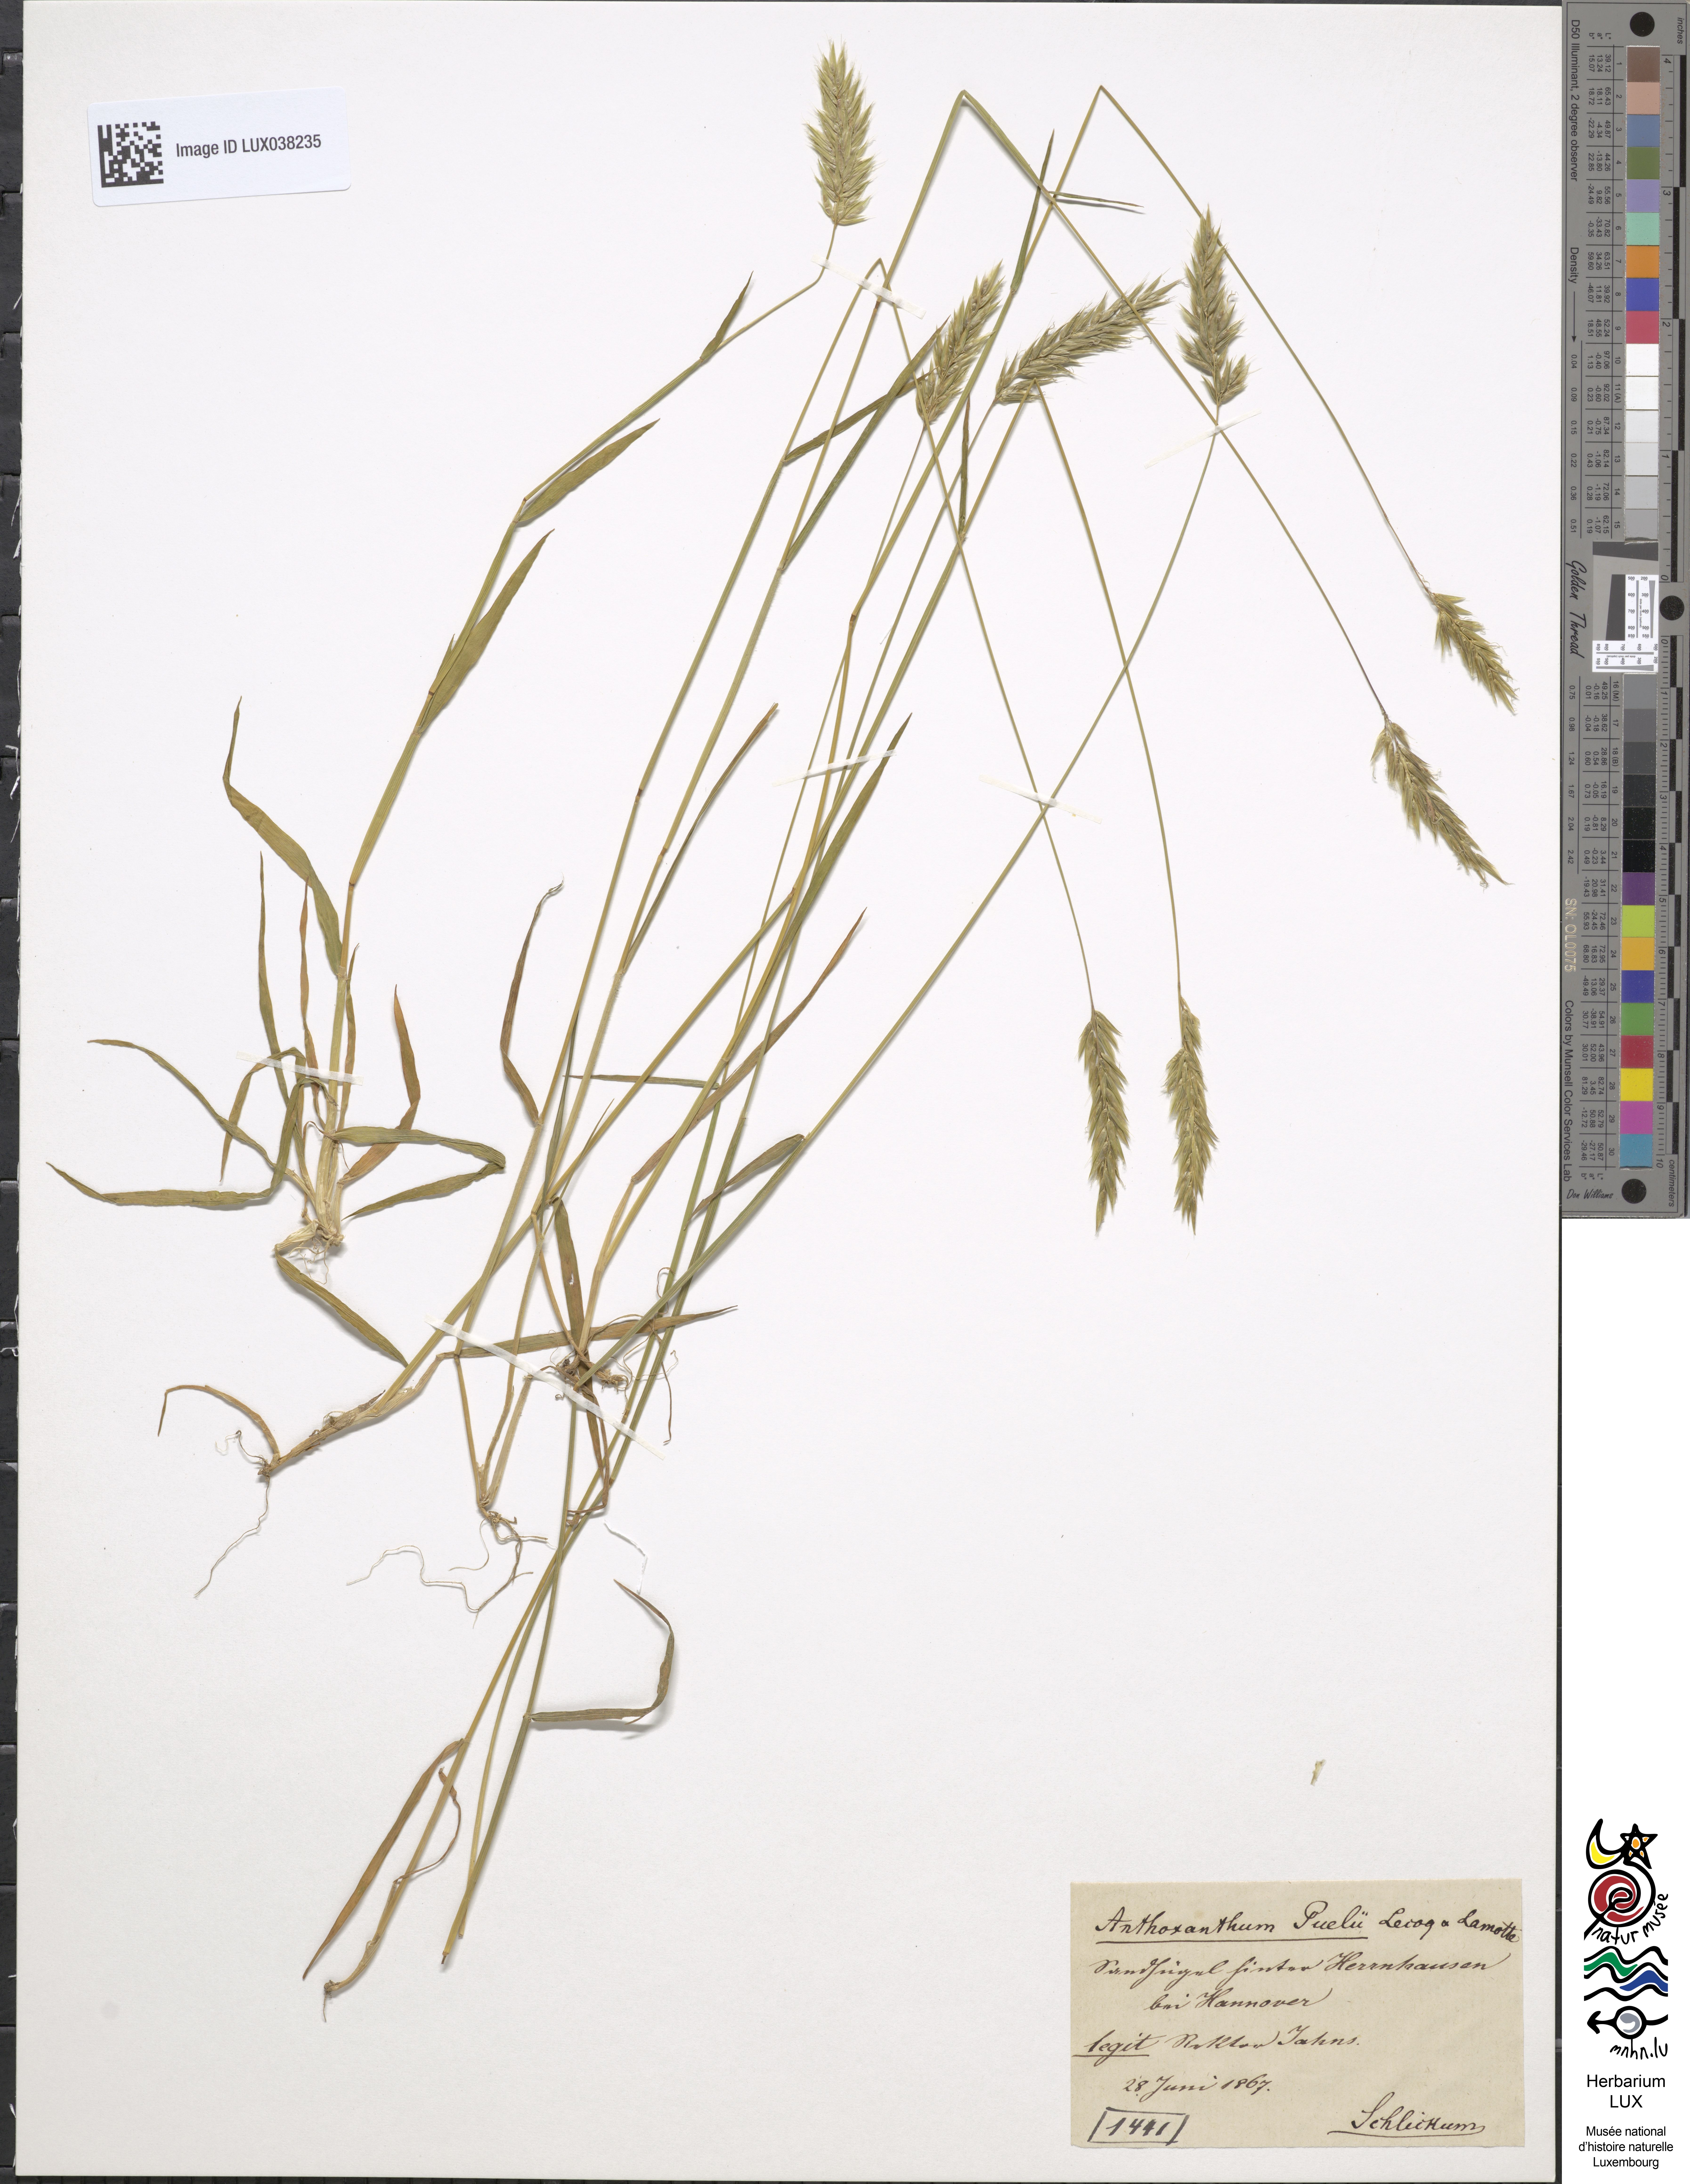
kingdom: Plantae
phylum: Tracheophyta
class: Liliopsida
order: Poales
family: Poaceae
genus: Anthoxanthum
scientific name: Anthoxanthum aristatum
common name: Annual vernal-grass
